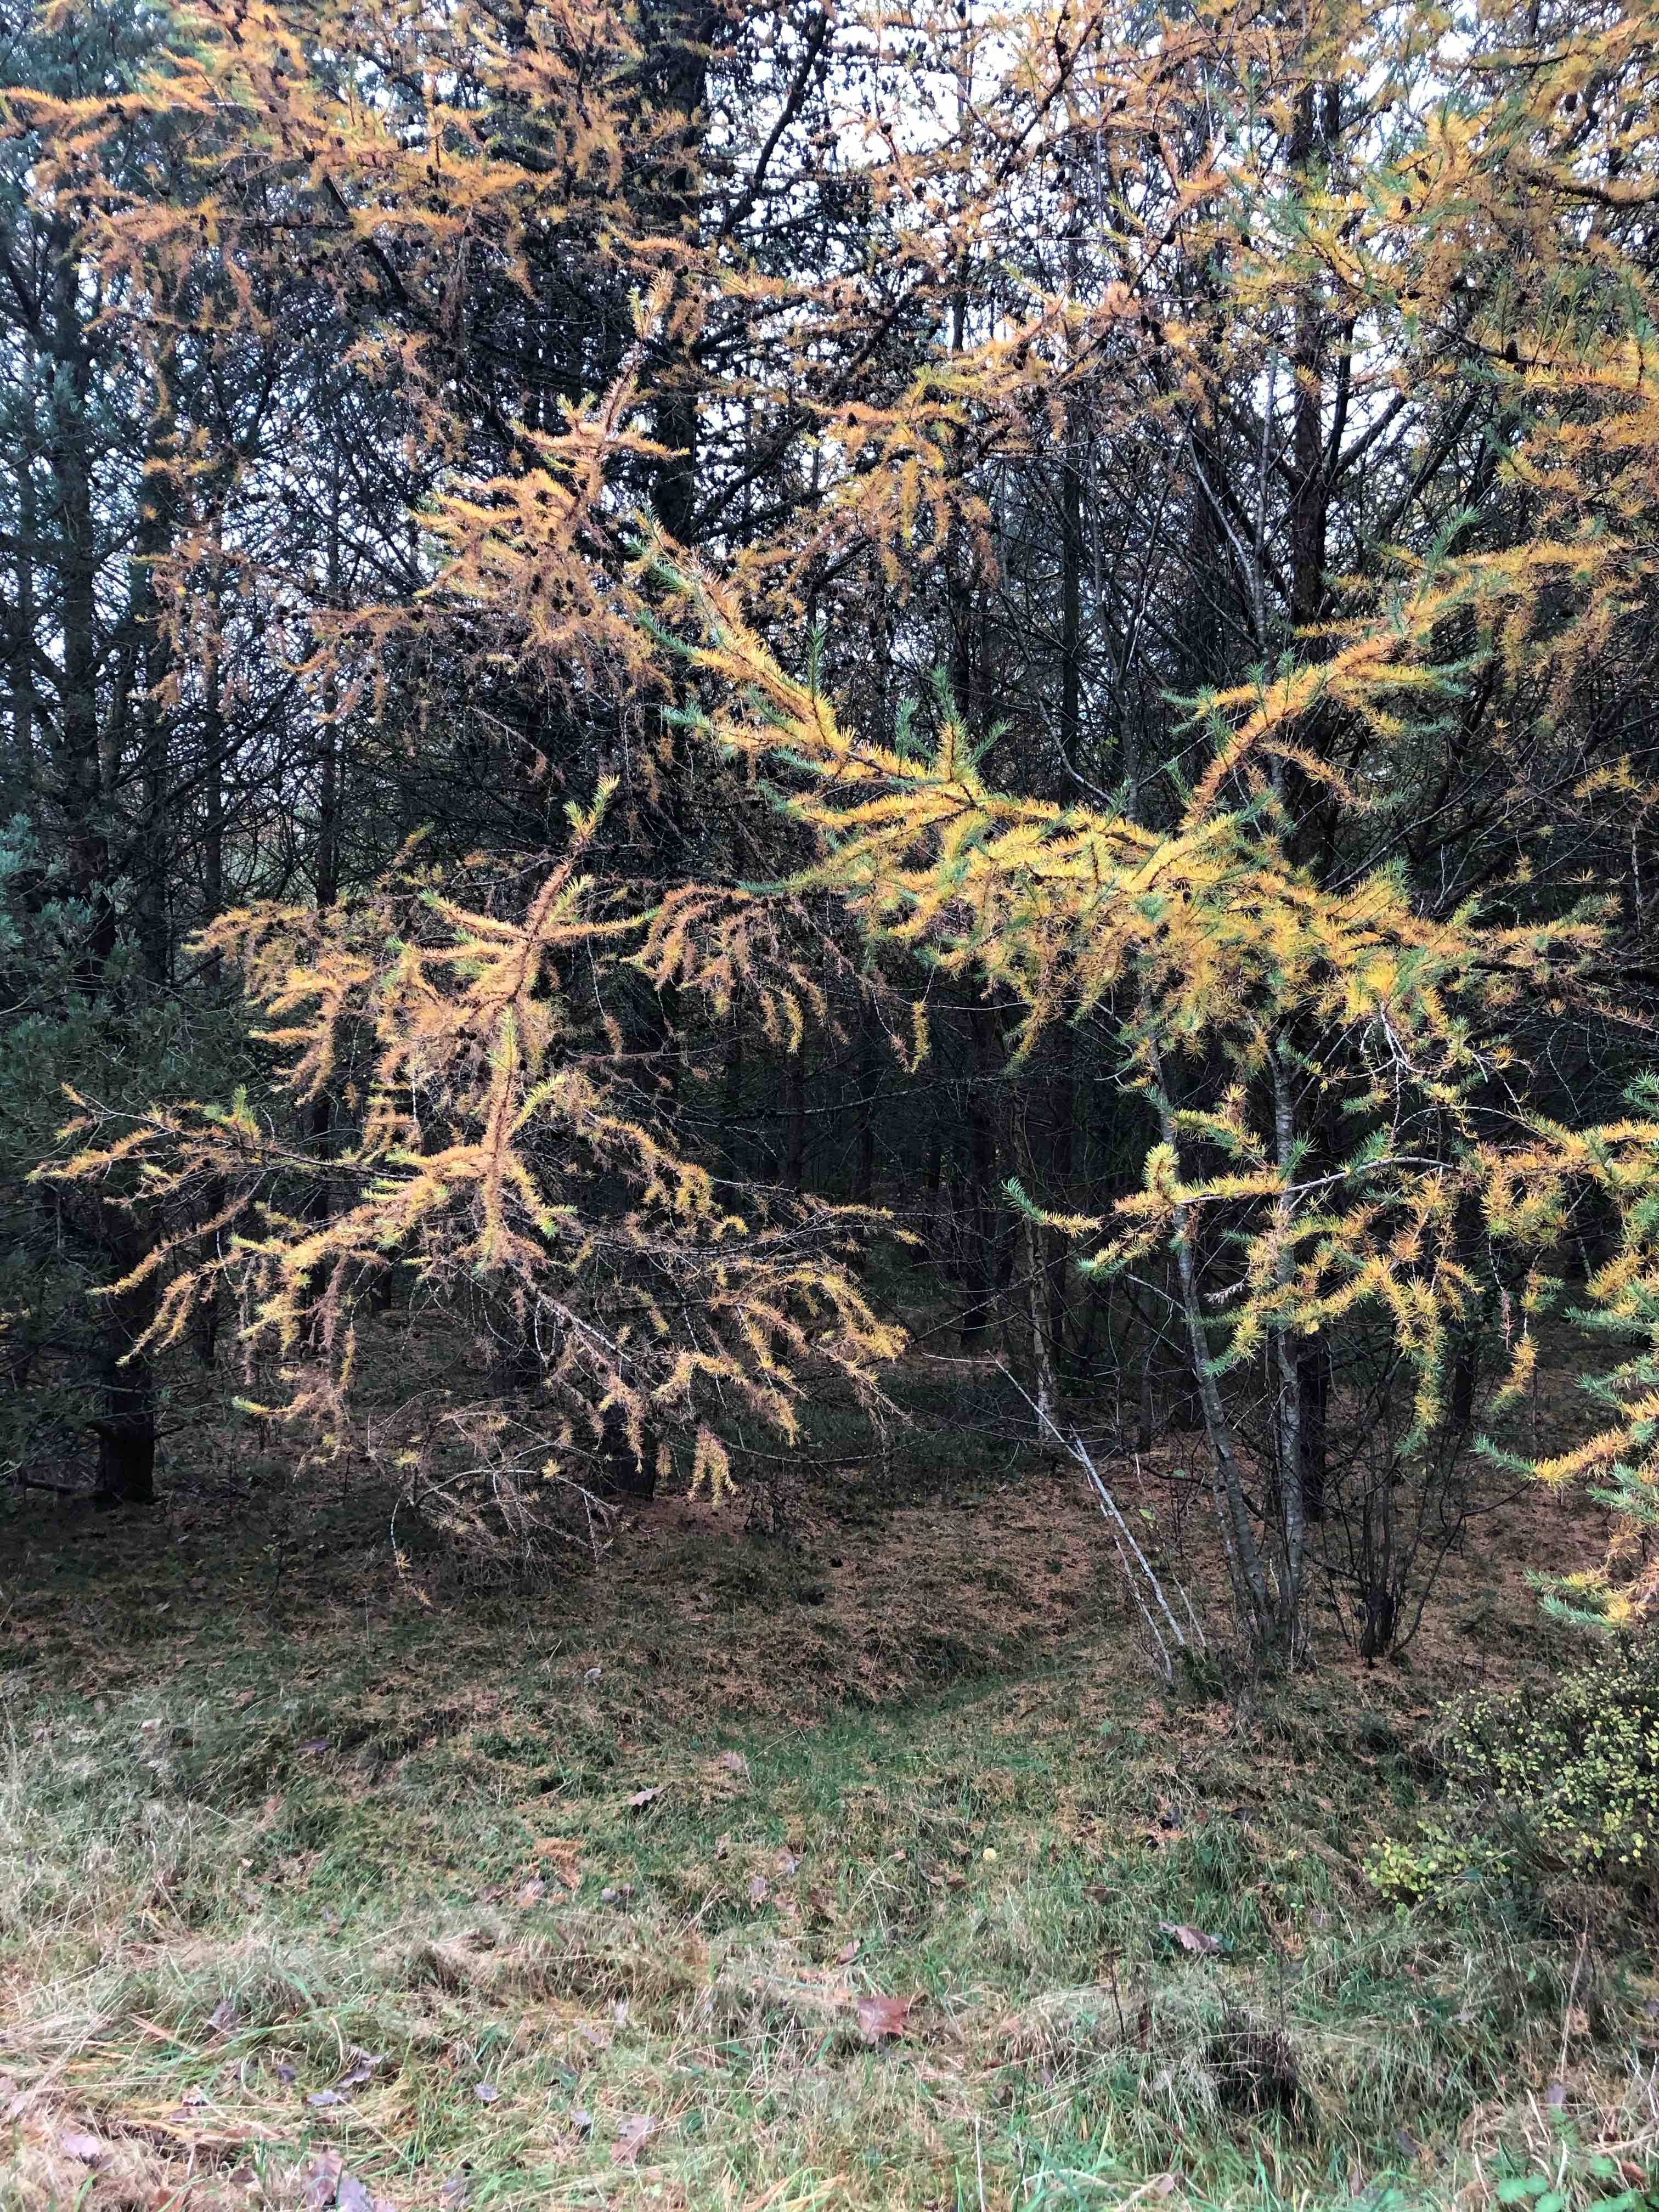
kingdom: Fungi
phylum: Basidiomycota
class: Agaricomycetes
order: Agaricales
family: Physalacriaceae
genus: Hymenopellis
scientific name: Hymenopellis radicata
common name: almindelig pælerodshat
